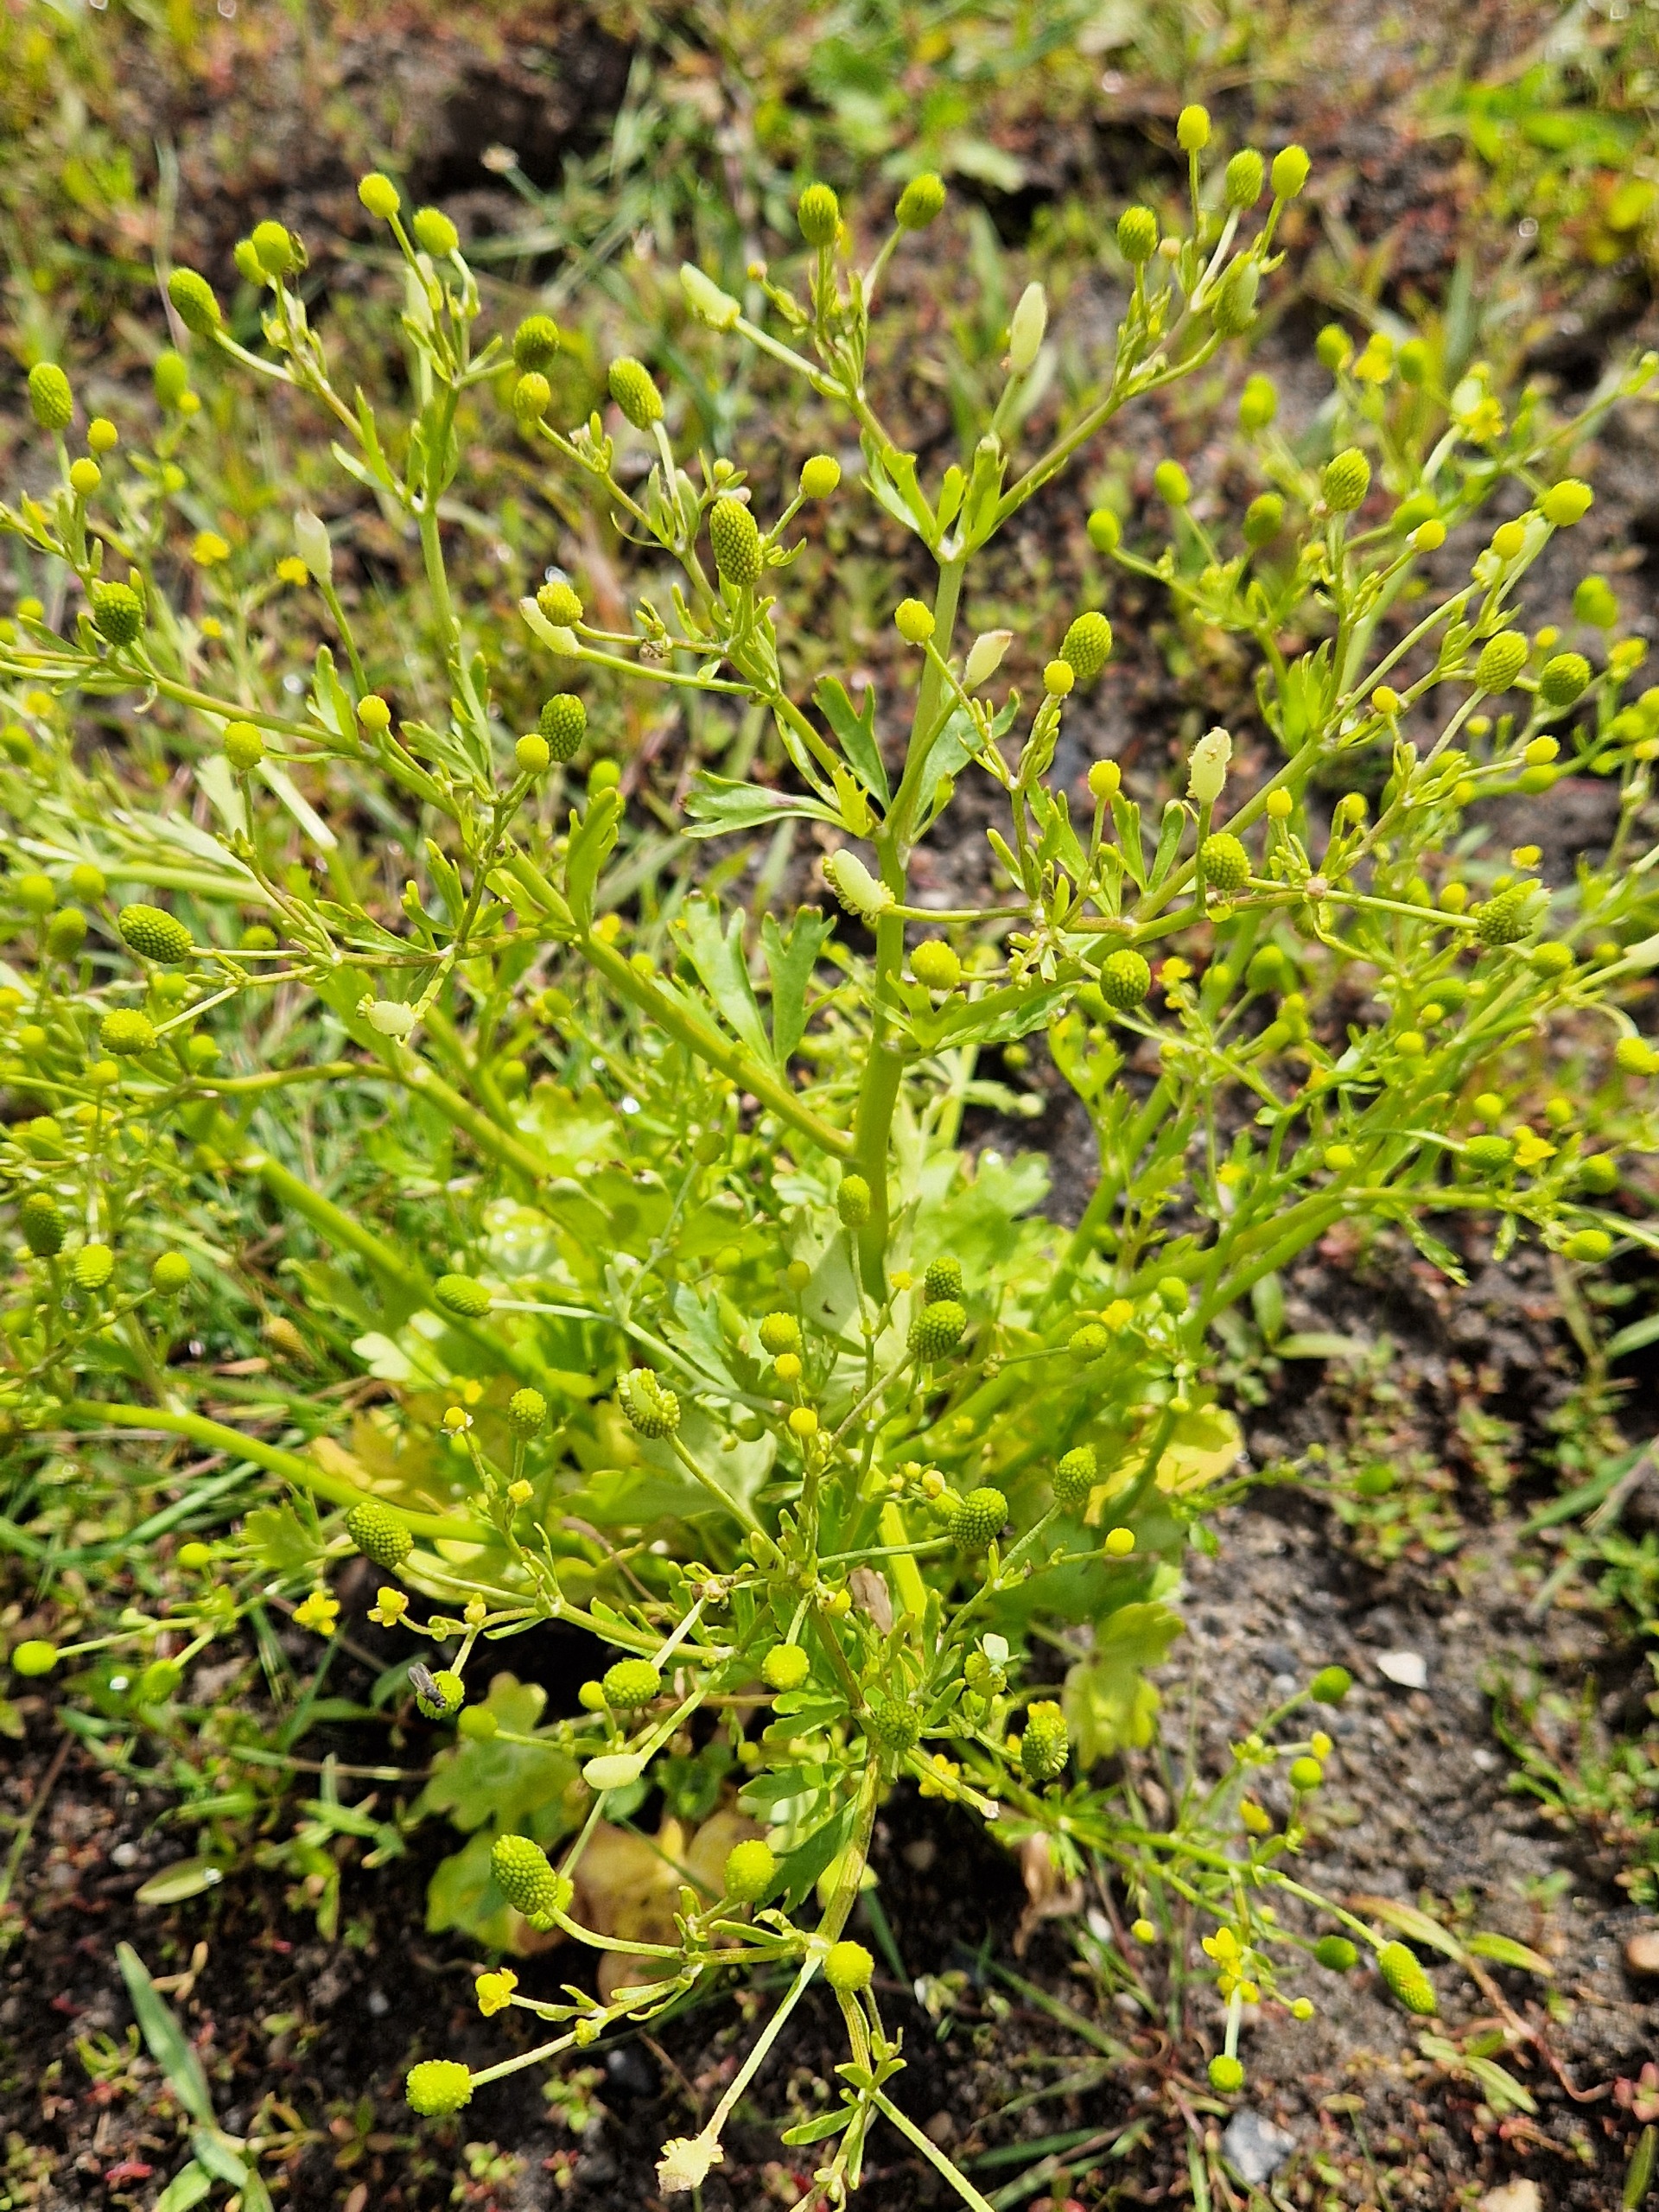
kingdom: Plantae
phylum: Tracheophyta
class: Magnoliopsida
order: Ranunculales
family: Ranunculaceae
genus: Ranunculus
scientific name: Ranunculus sceleratus
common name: Tigger-ranunkel
